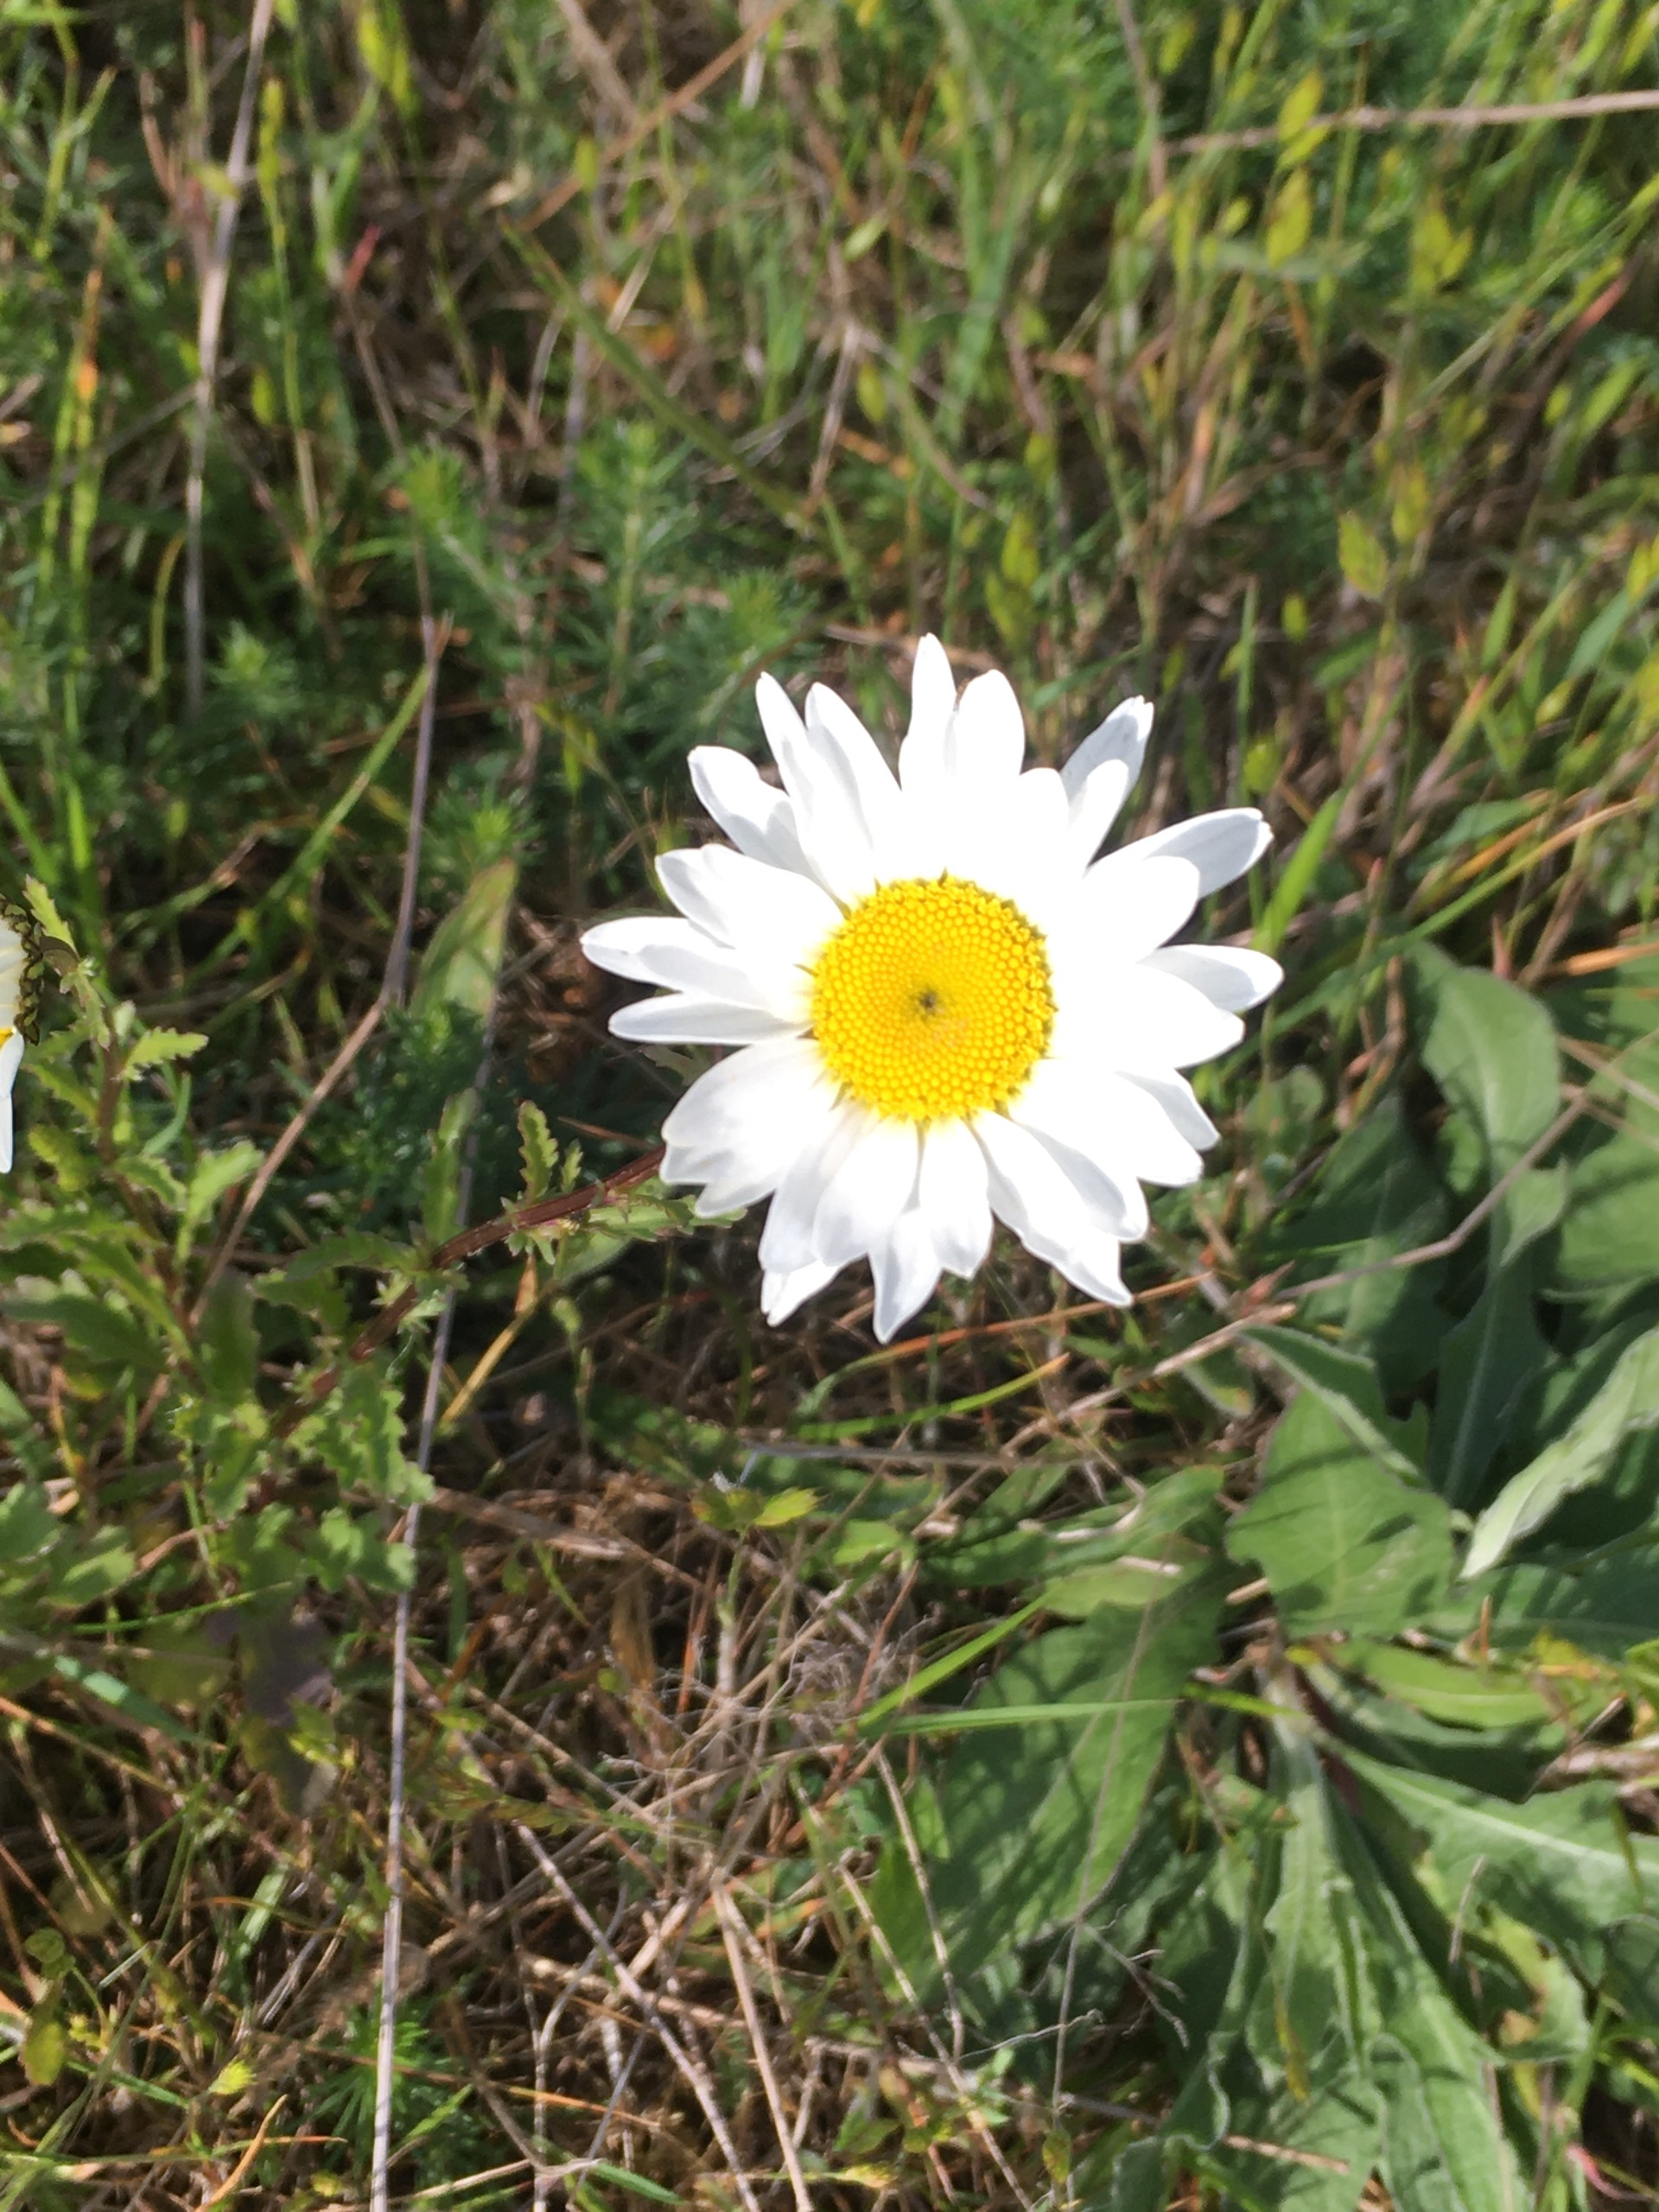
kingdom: Plantae
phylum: Tracheophyta
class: Magnoliopsida
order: Asterales
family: Asteraceae
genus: Leucanthemum
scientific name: Leucanthemum vulgare
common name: Hvid okseøje
